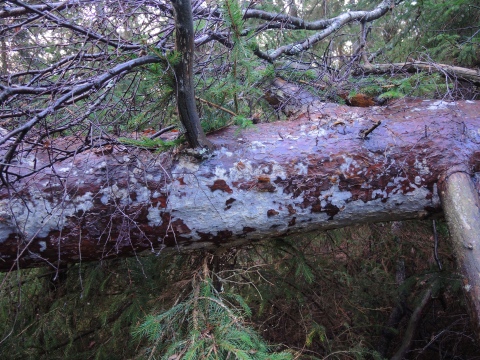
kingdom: Fungi
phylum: Basidiomycota
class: Agaricomycetes
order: Polyporales
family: Phanerochaetaceae
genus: Phlebiopsis
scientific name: Phlebiopsis gigantea
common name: kæmpebarksvamp
